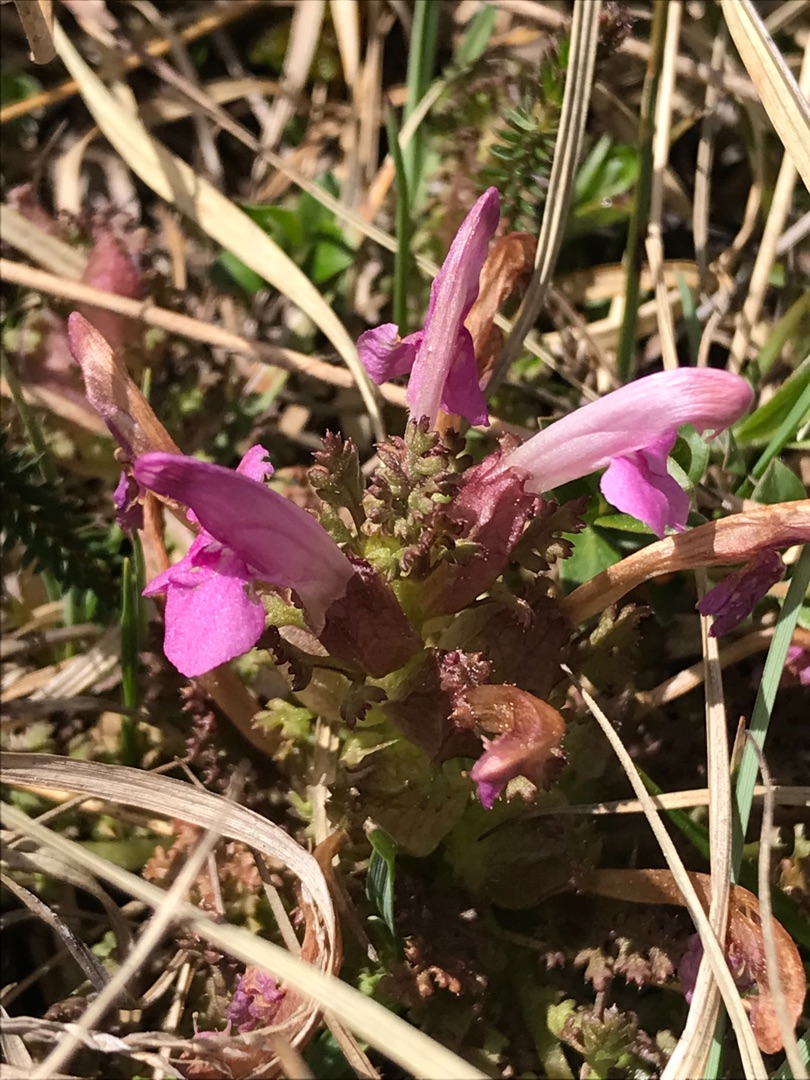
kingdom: Plantae
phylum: Tracheophyta
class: Magnoliopsida
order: Lamiales
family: Orobanchaceae
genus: Pedicularis
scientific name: Pedicularis sylvatica
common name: Mose-troldurt
